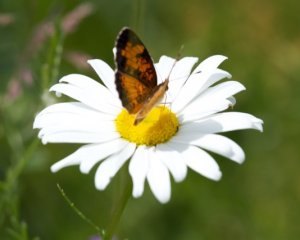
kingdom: Animalia
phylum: Arthropoda
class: Insecta
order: Lepidoptera
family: Nymphalidae
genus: Phyciodes
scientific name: Phyciodes tharos
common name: Northern Crescent
